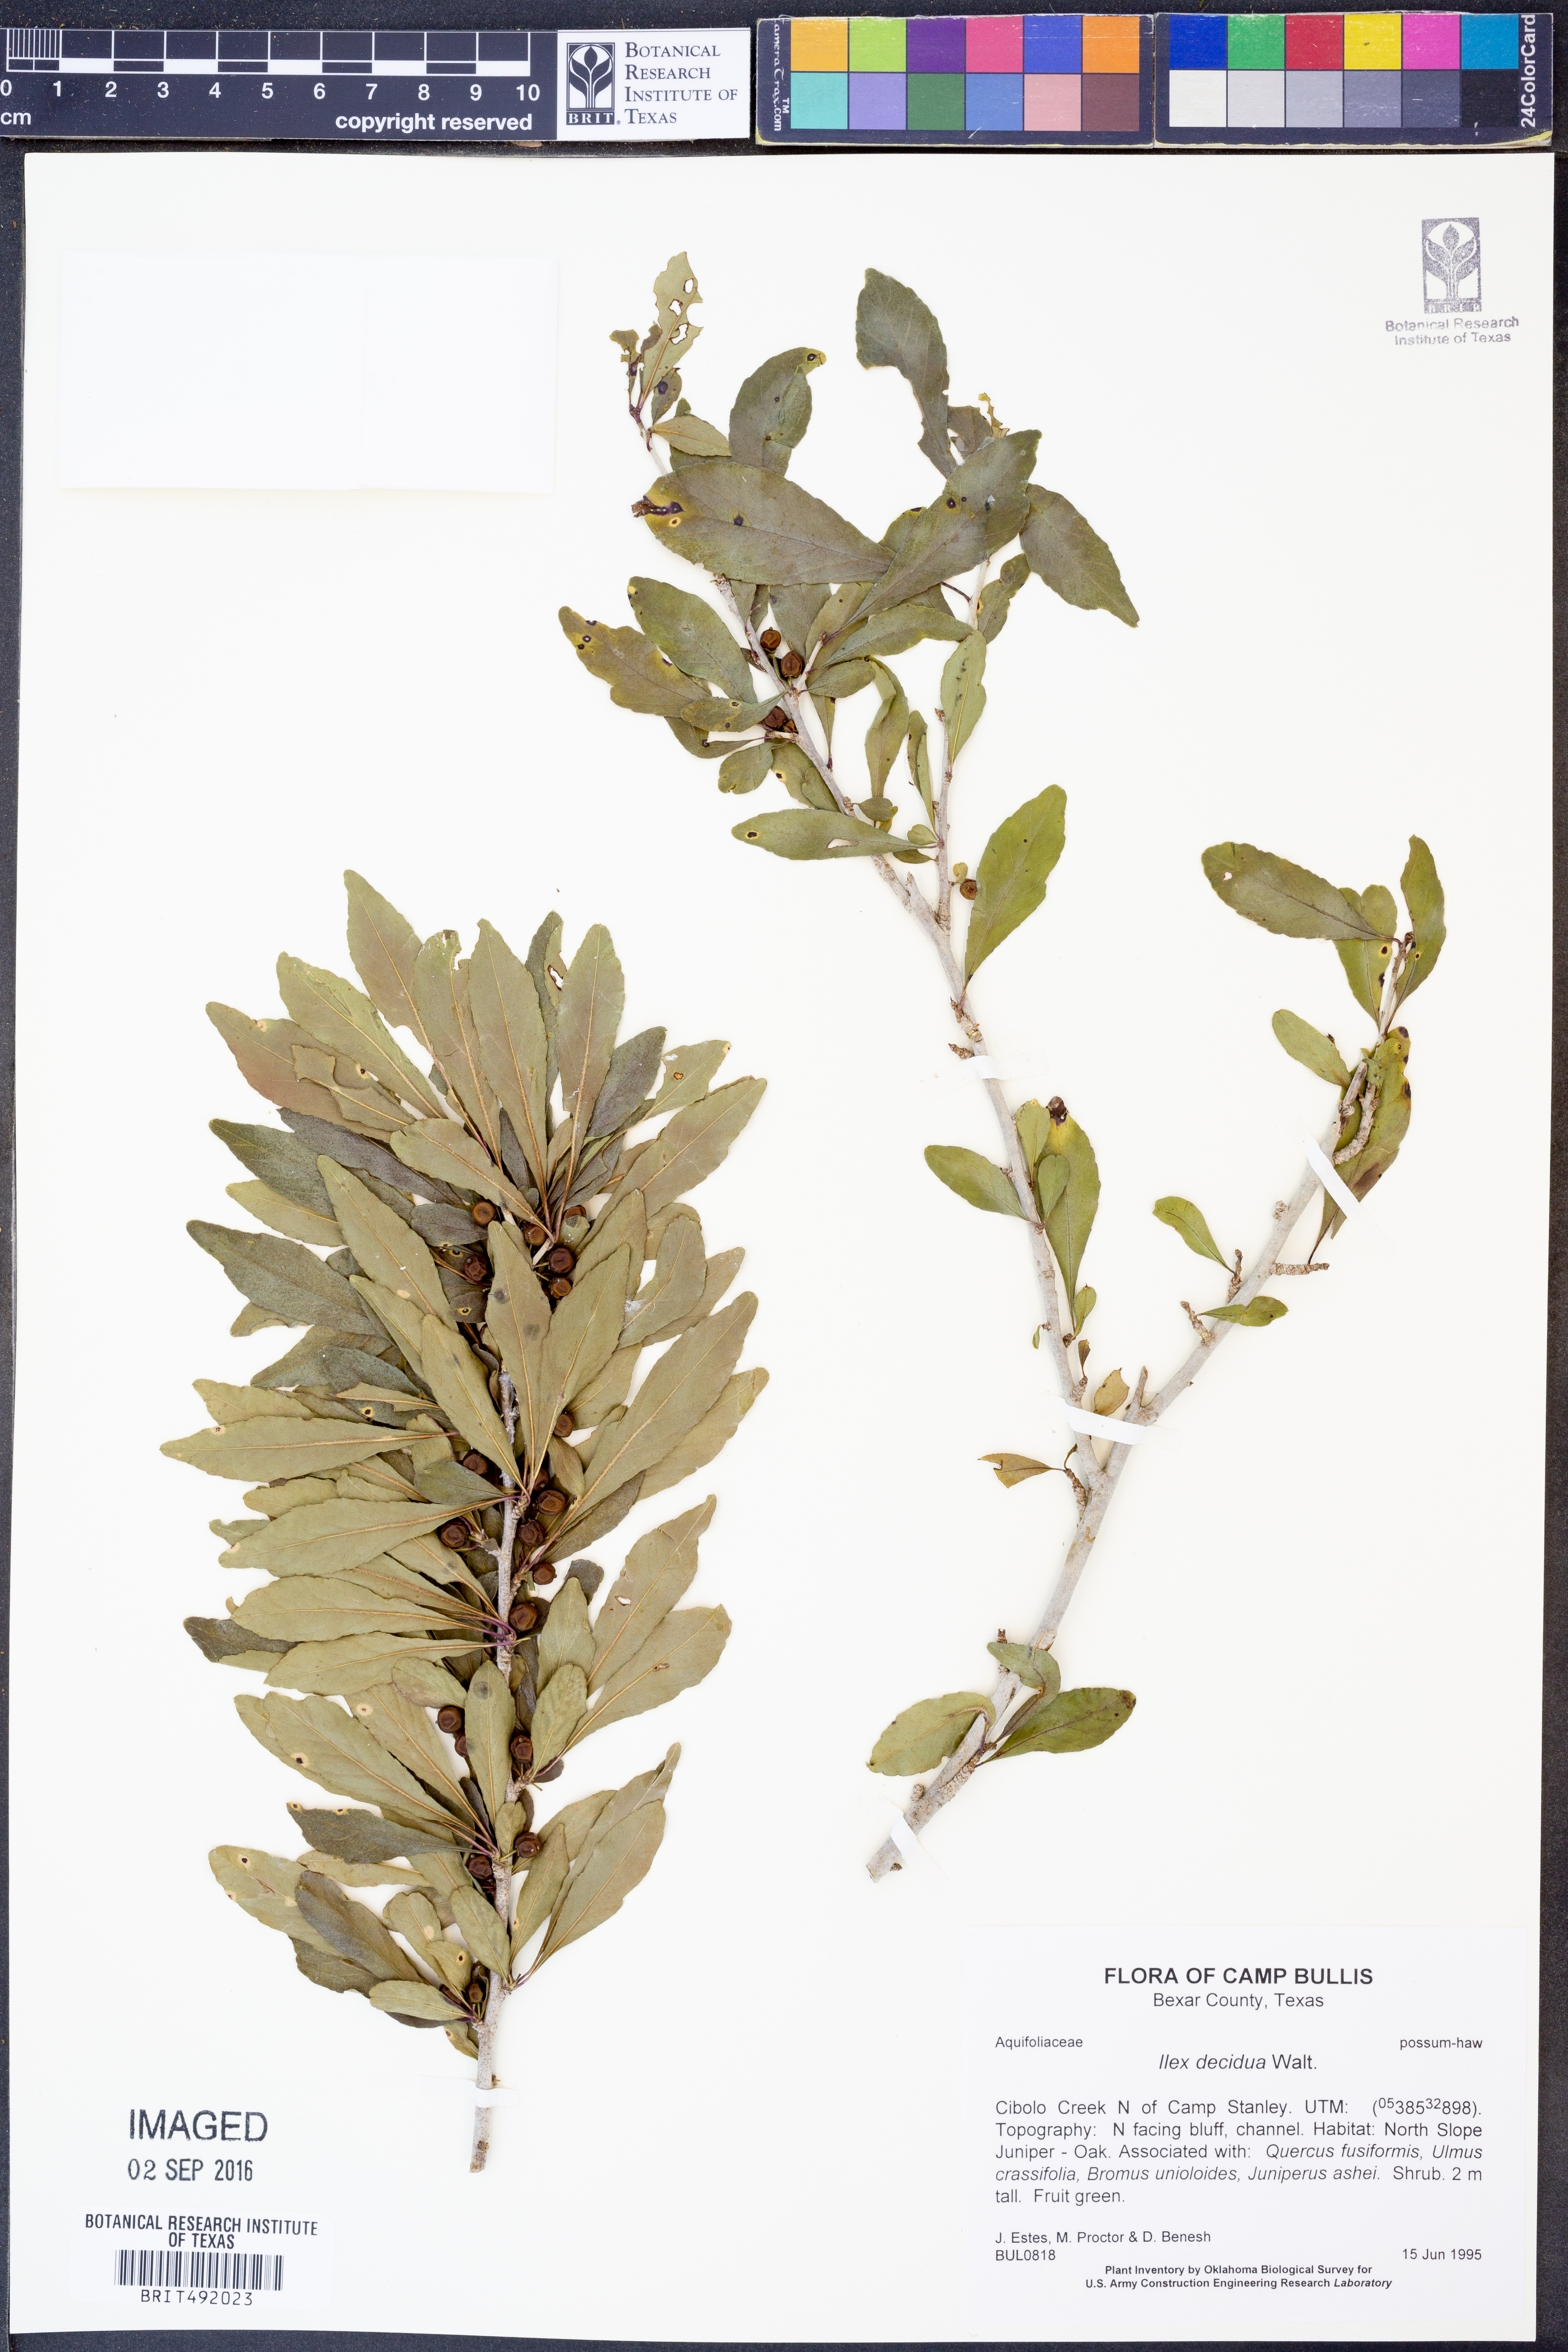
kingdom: Plantae
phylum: Tracheophyta
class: Magnoliopsida
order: Aquifoliales
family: Aquifoliaceae
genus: Ilex
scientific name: Ilex decidua
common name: Possum-haw
